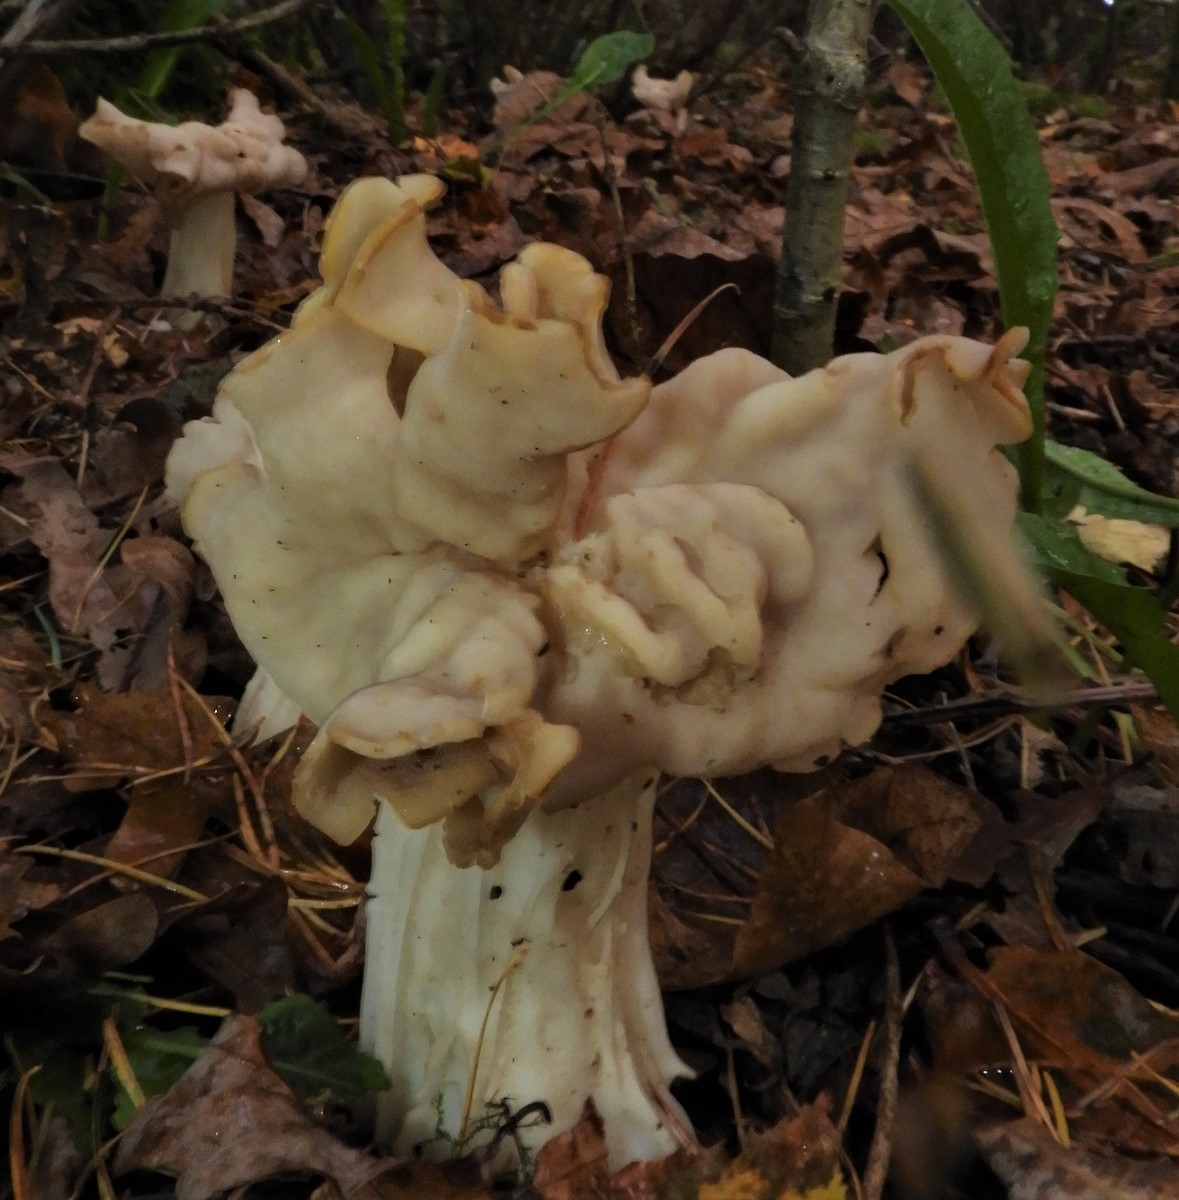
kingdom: Fungi
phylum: Ascomycota
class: Pezizomycetes
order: Pezizales
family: Helvellaceae
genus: Helvella
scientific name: Helvella crispa
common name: kruset foldhat
